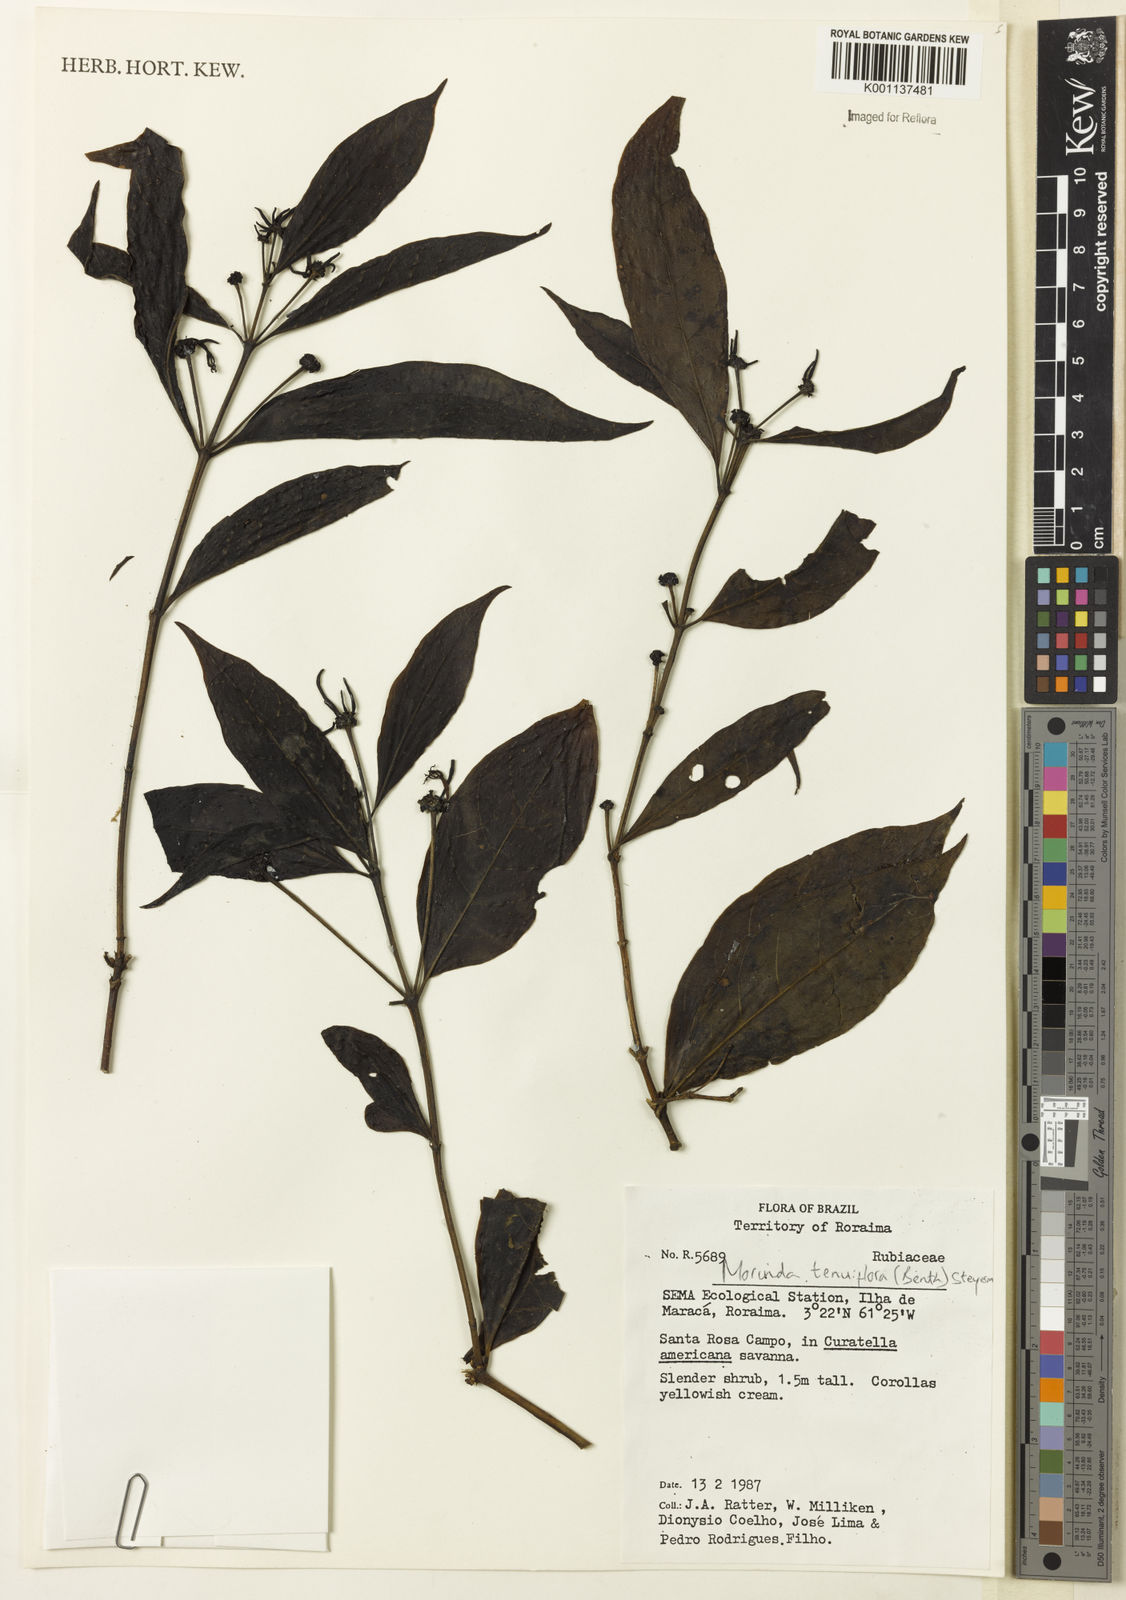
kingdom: Plantae
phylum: Tracheophyta
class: Magnoliopsida
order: Gentianales
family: Rubiaceae
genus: Appunia
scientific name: Appunia tenuiflora
